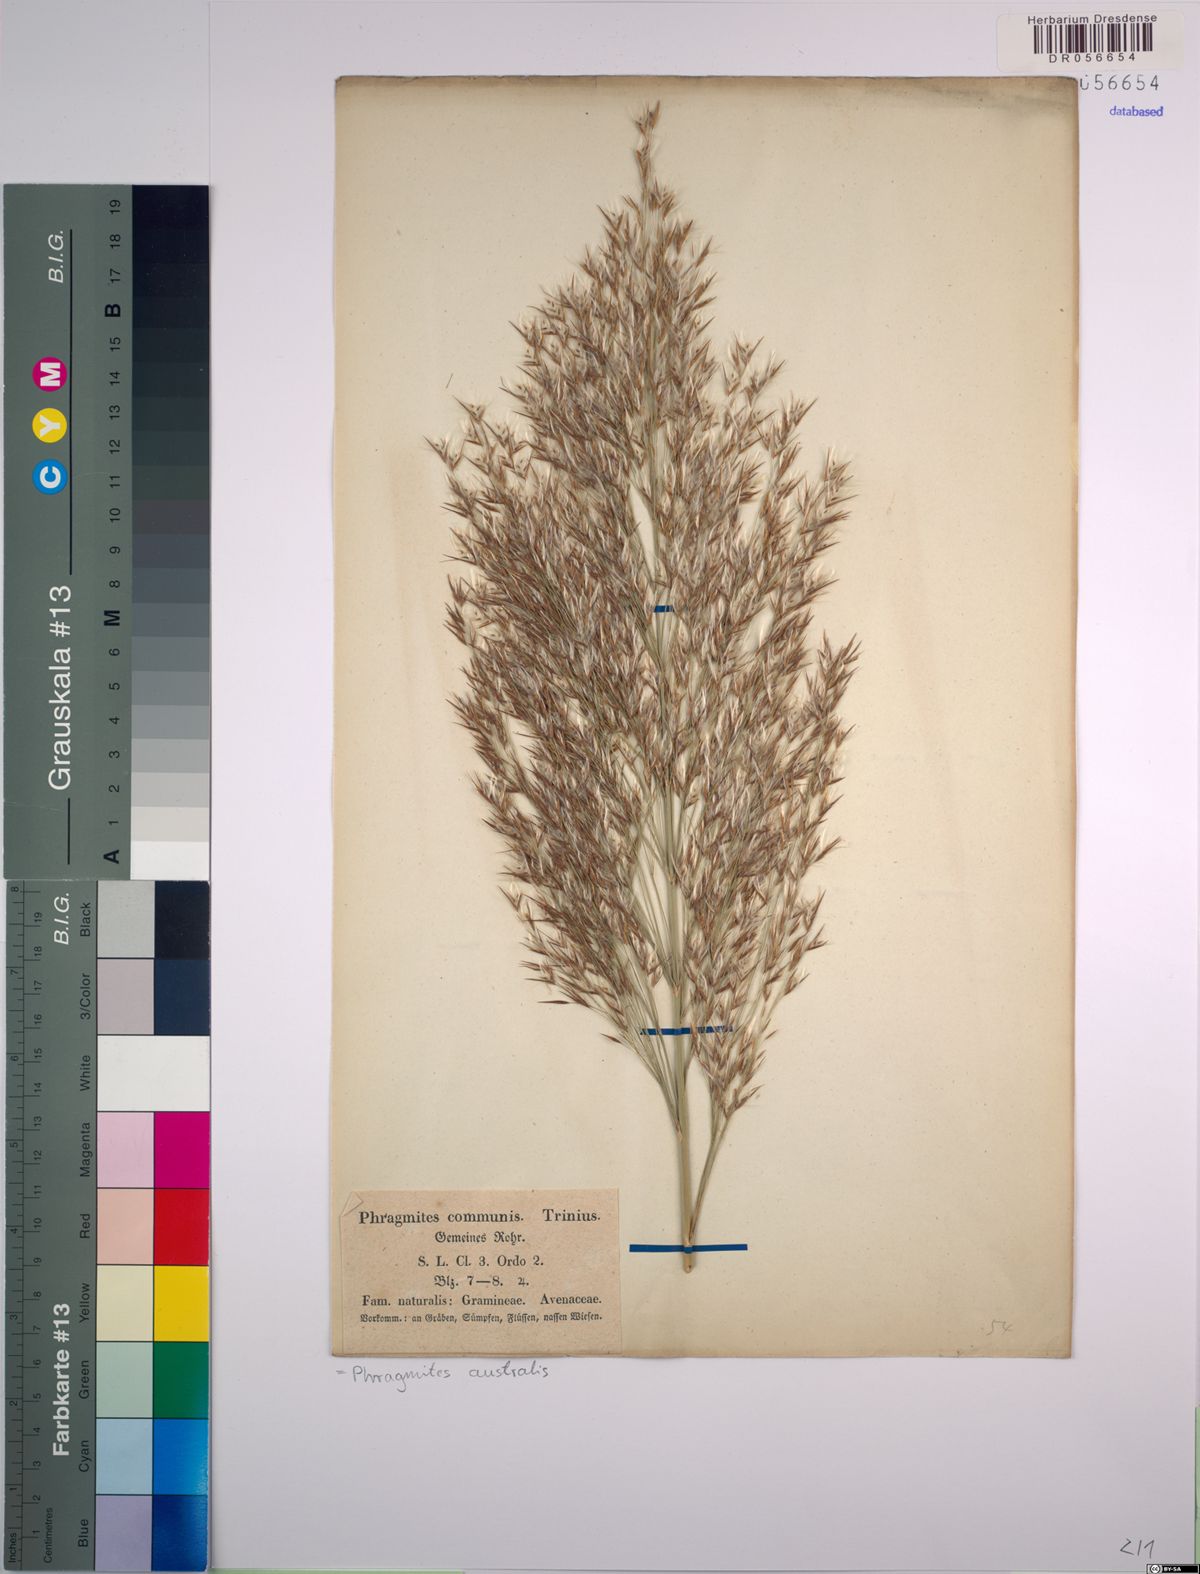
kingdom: Plantae
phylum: Tracheophyta
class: Liliopsida
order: Poales
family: Poaceae
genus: Phragmites
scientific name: Phragmites australis
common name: Common reed
